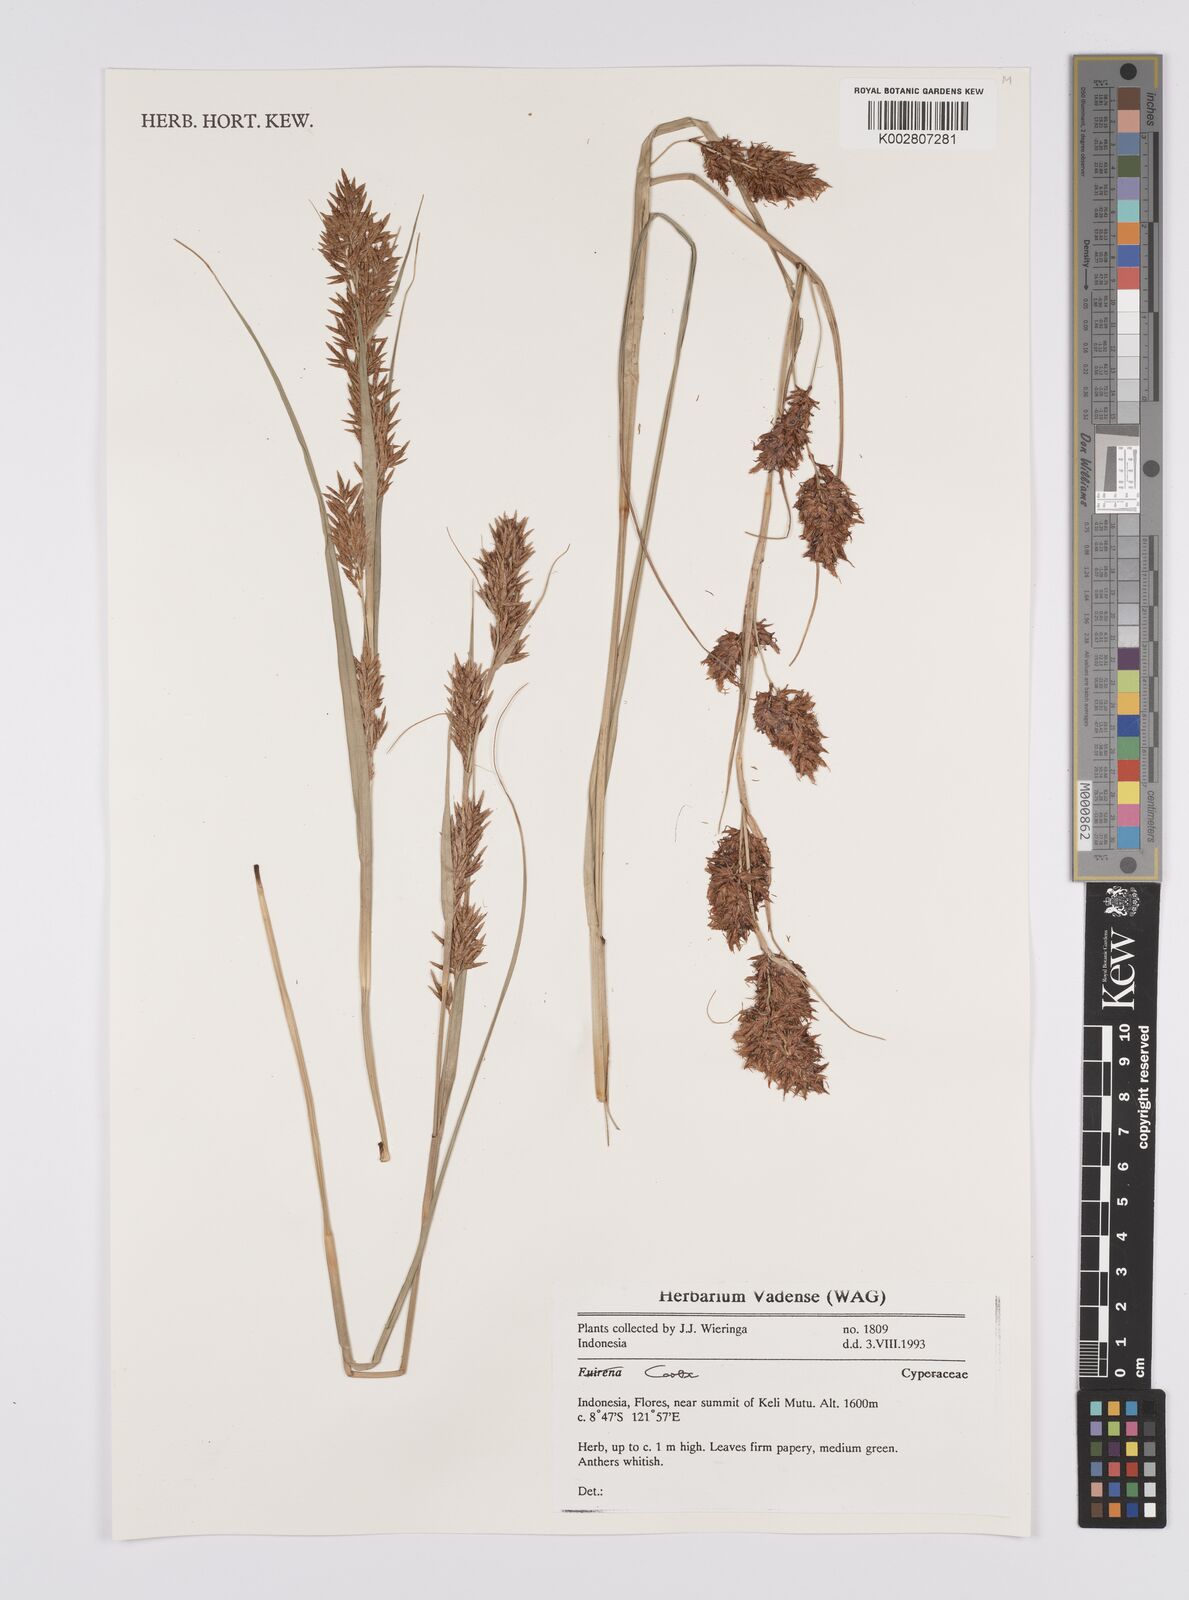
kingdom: Plantae
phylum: Tracheophyta
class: Liliopsida
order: Poales
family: Cyperaceae
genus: Carex
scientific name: Carex
